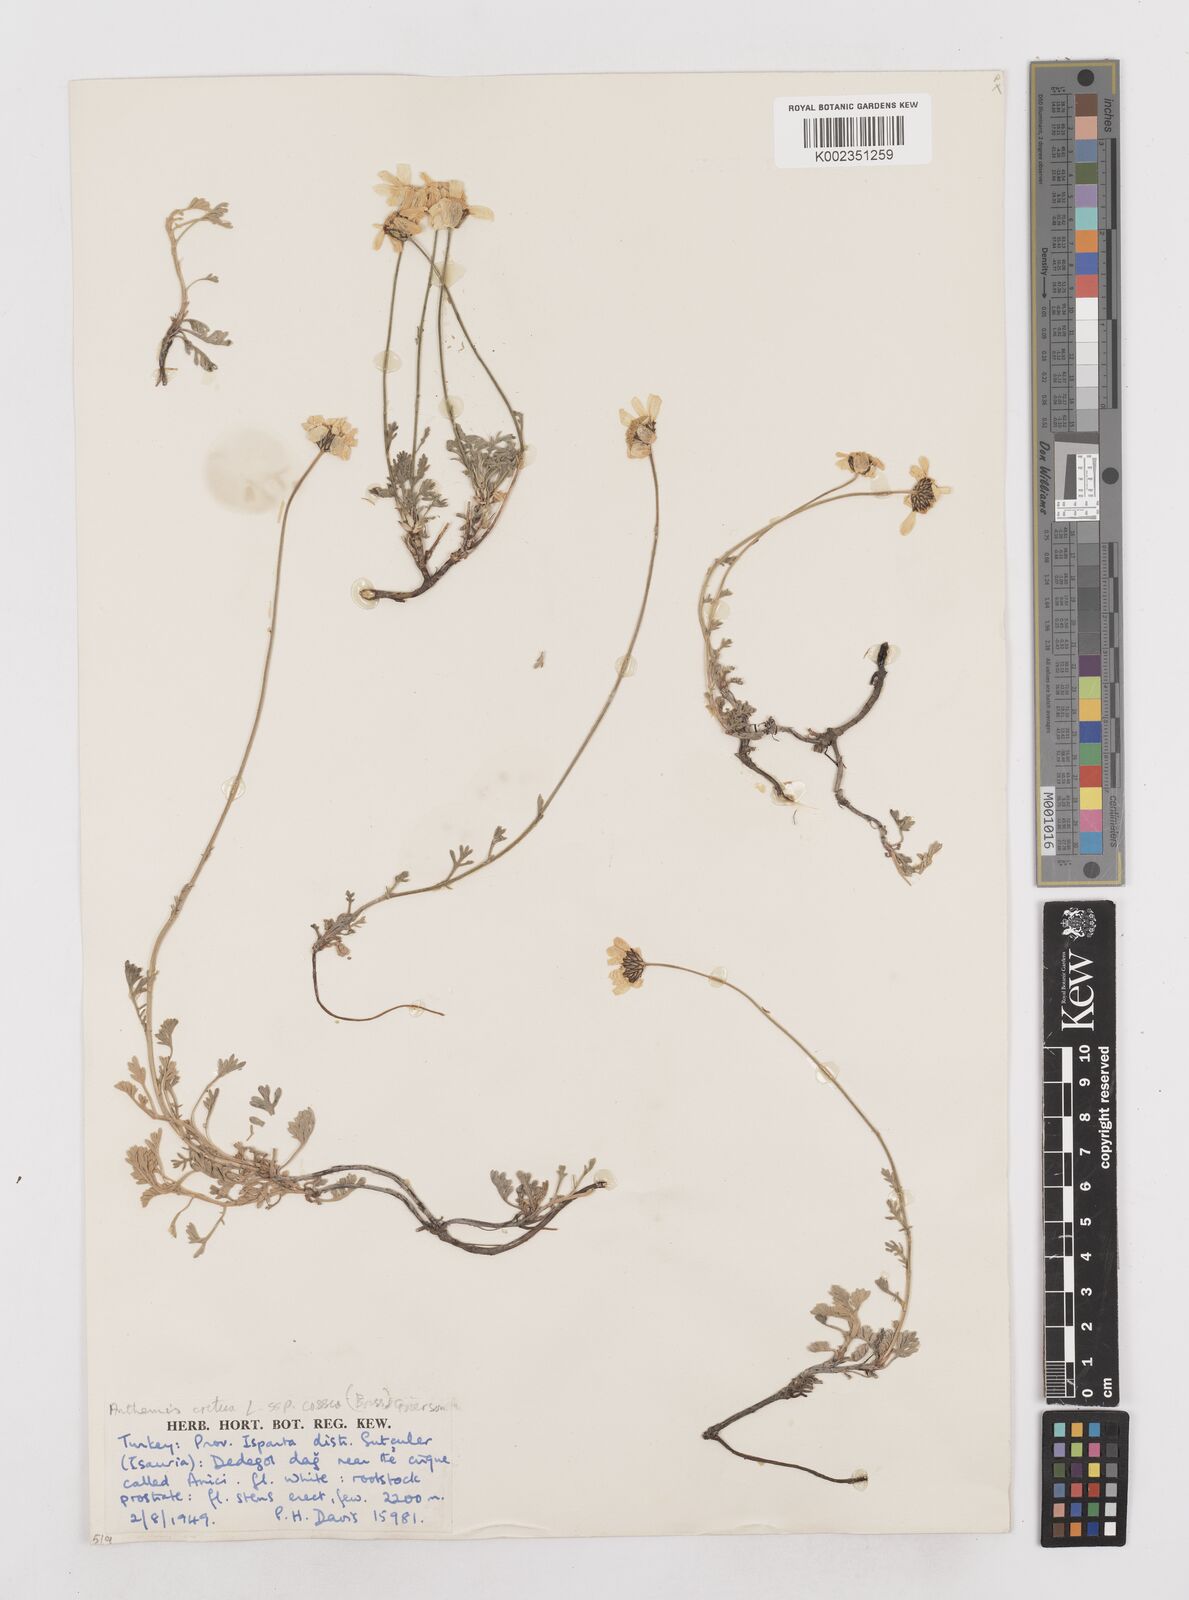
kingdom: Plantae
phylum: Tracheophyta
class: Magnoliopsida
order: Asterales
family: Asteraceae
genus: Anthemis
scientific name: Anthemis cretica
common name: Mountain dog-daisy
